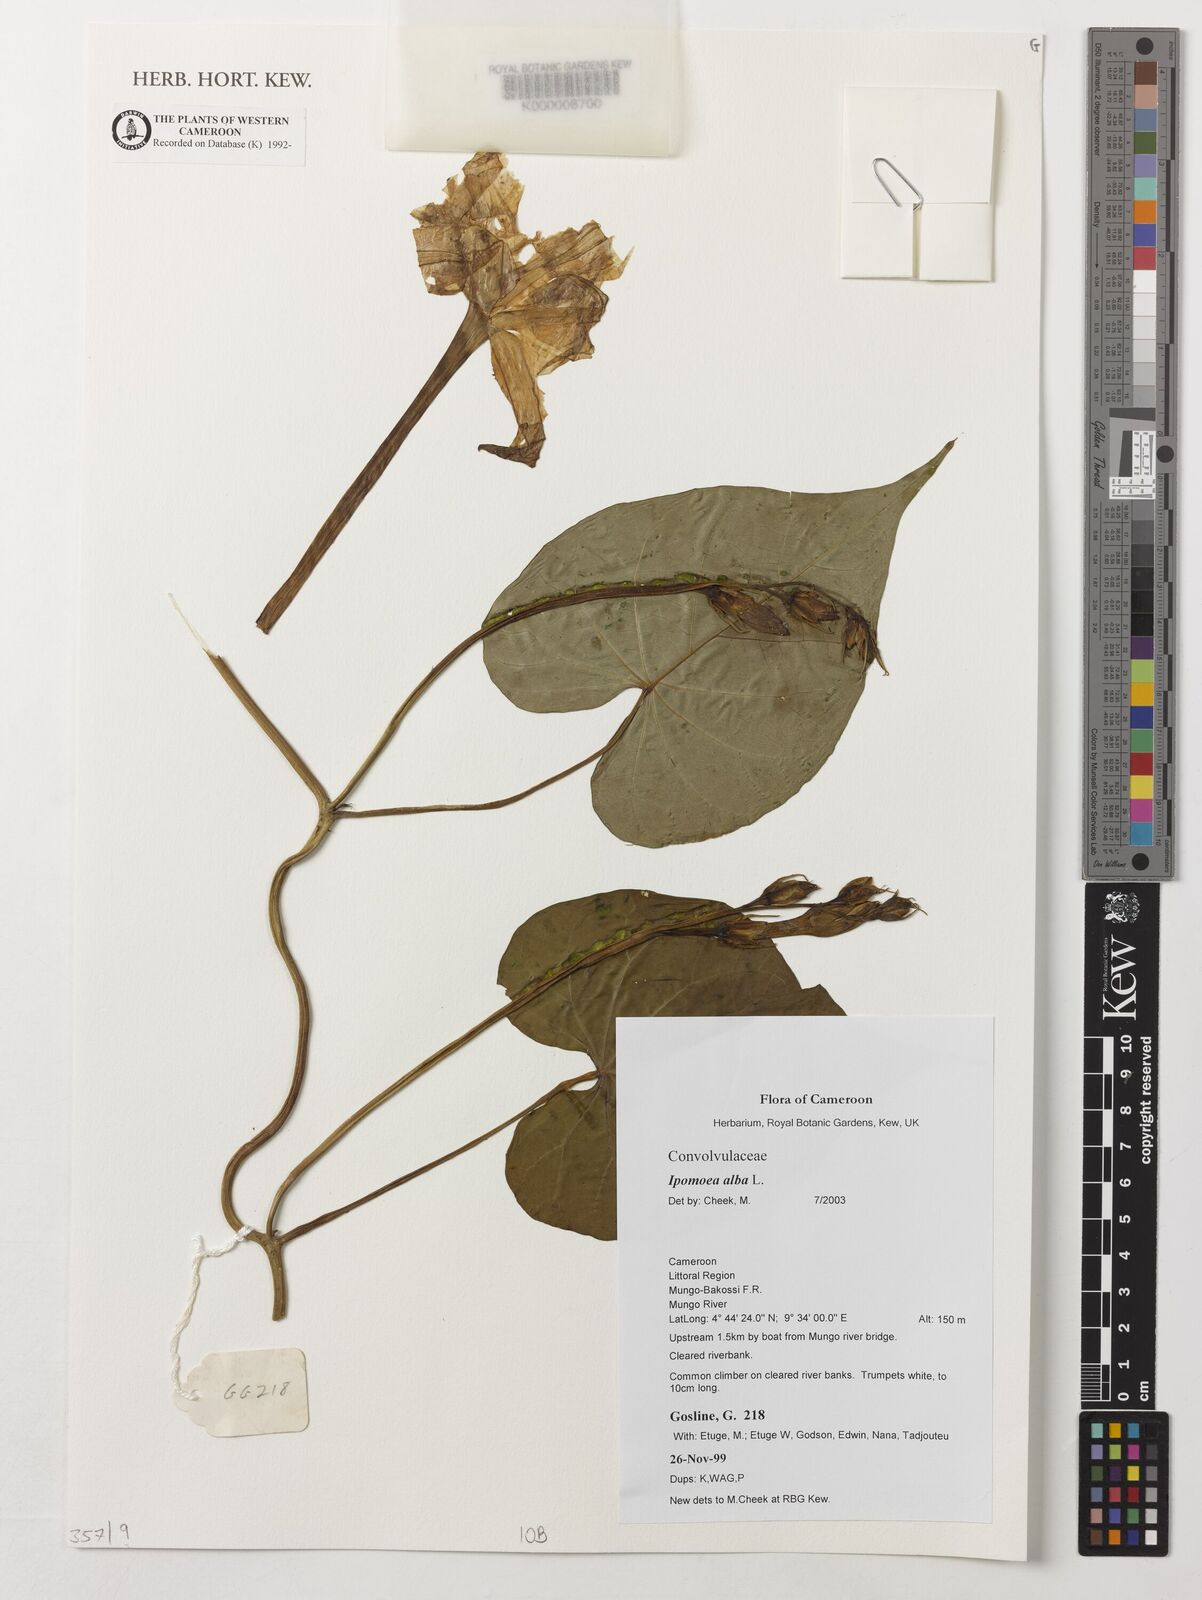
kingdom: Plantae
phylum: Tracheophyta
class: Magnoliopsida
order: Solanales
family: Convolvulaceae
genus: Ipomoea
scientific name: Ipomoea alba
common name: Moonflower
